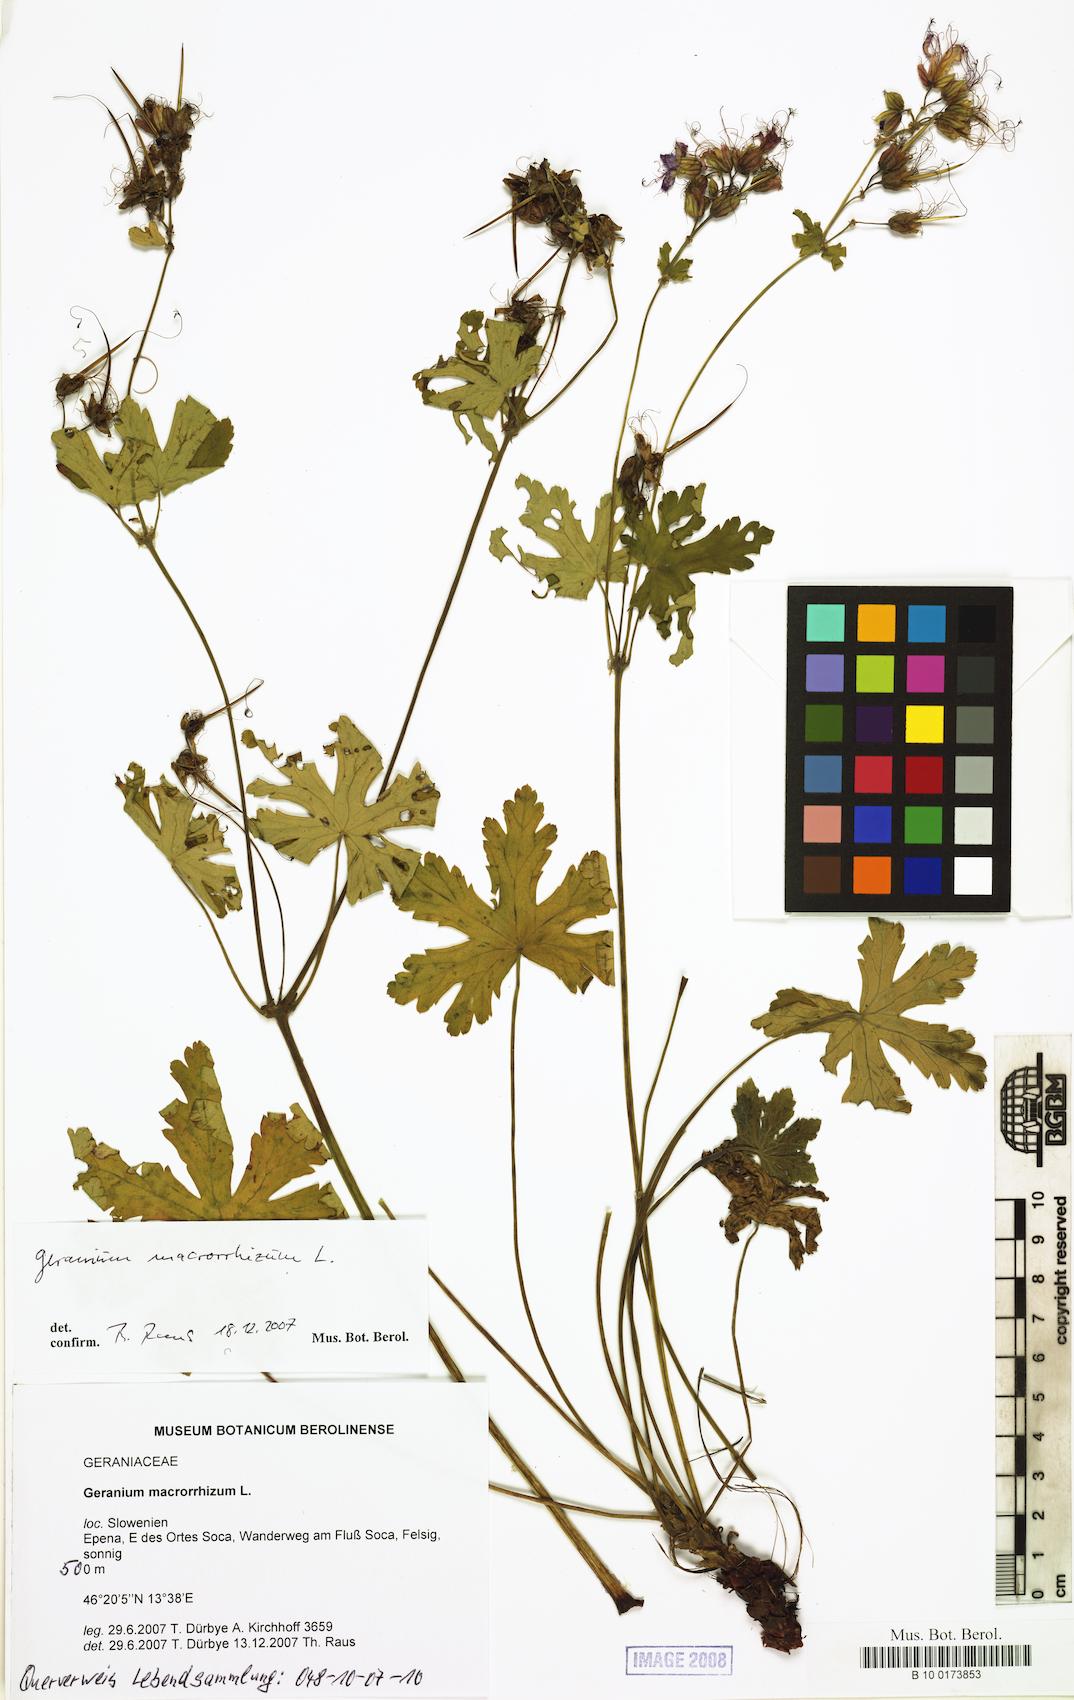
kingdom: Plantae
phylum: Tracheophyta
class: Magnoliopsida
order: Geraniales
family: Geraniaceae
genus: Geranium
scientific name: Geranium macrorrhizum
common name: Rock crane's-bill
